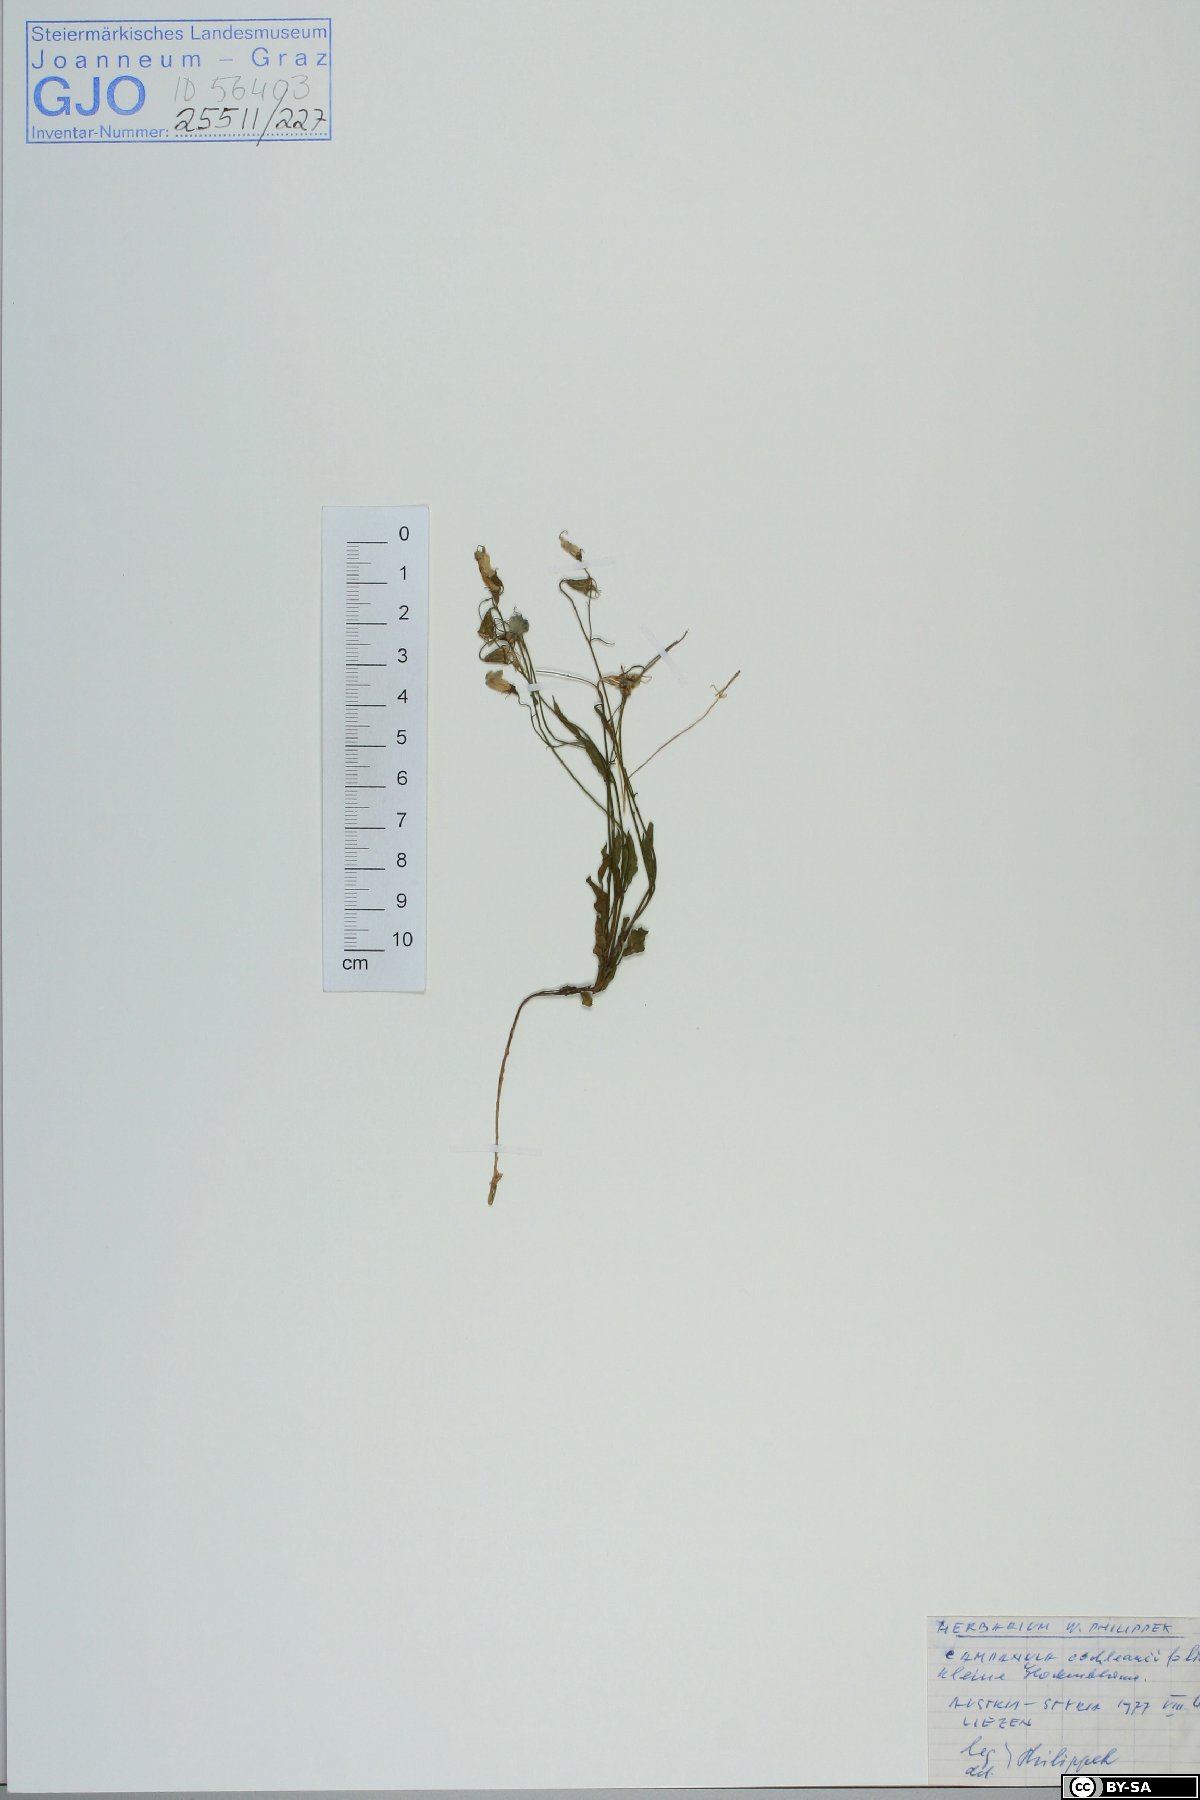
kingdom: Plantae
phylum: Tracheophyta
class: Magnoliopsida
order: Asterales
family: Campanulaceae
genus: Campanula
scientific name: Campanula cochleariifolia
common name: Fairies'-thimbles
